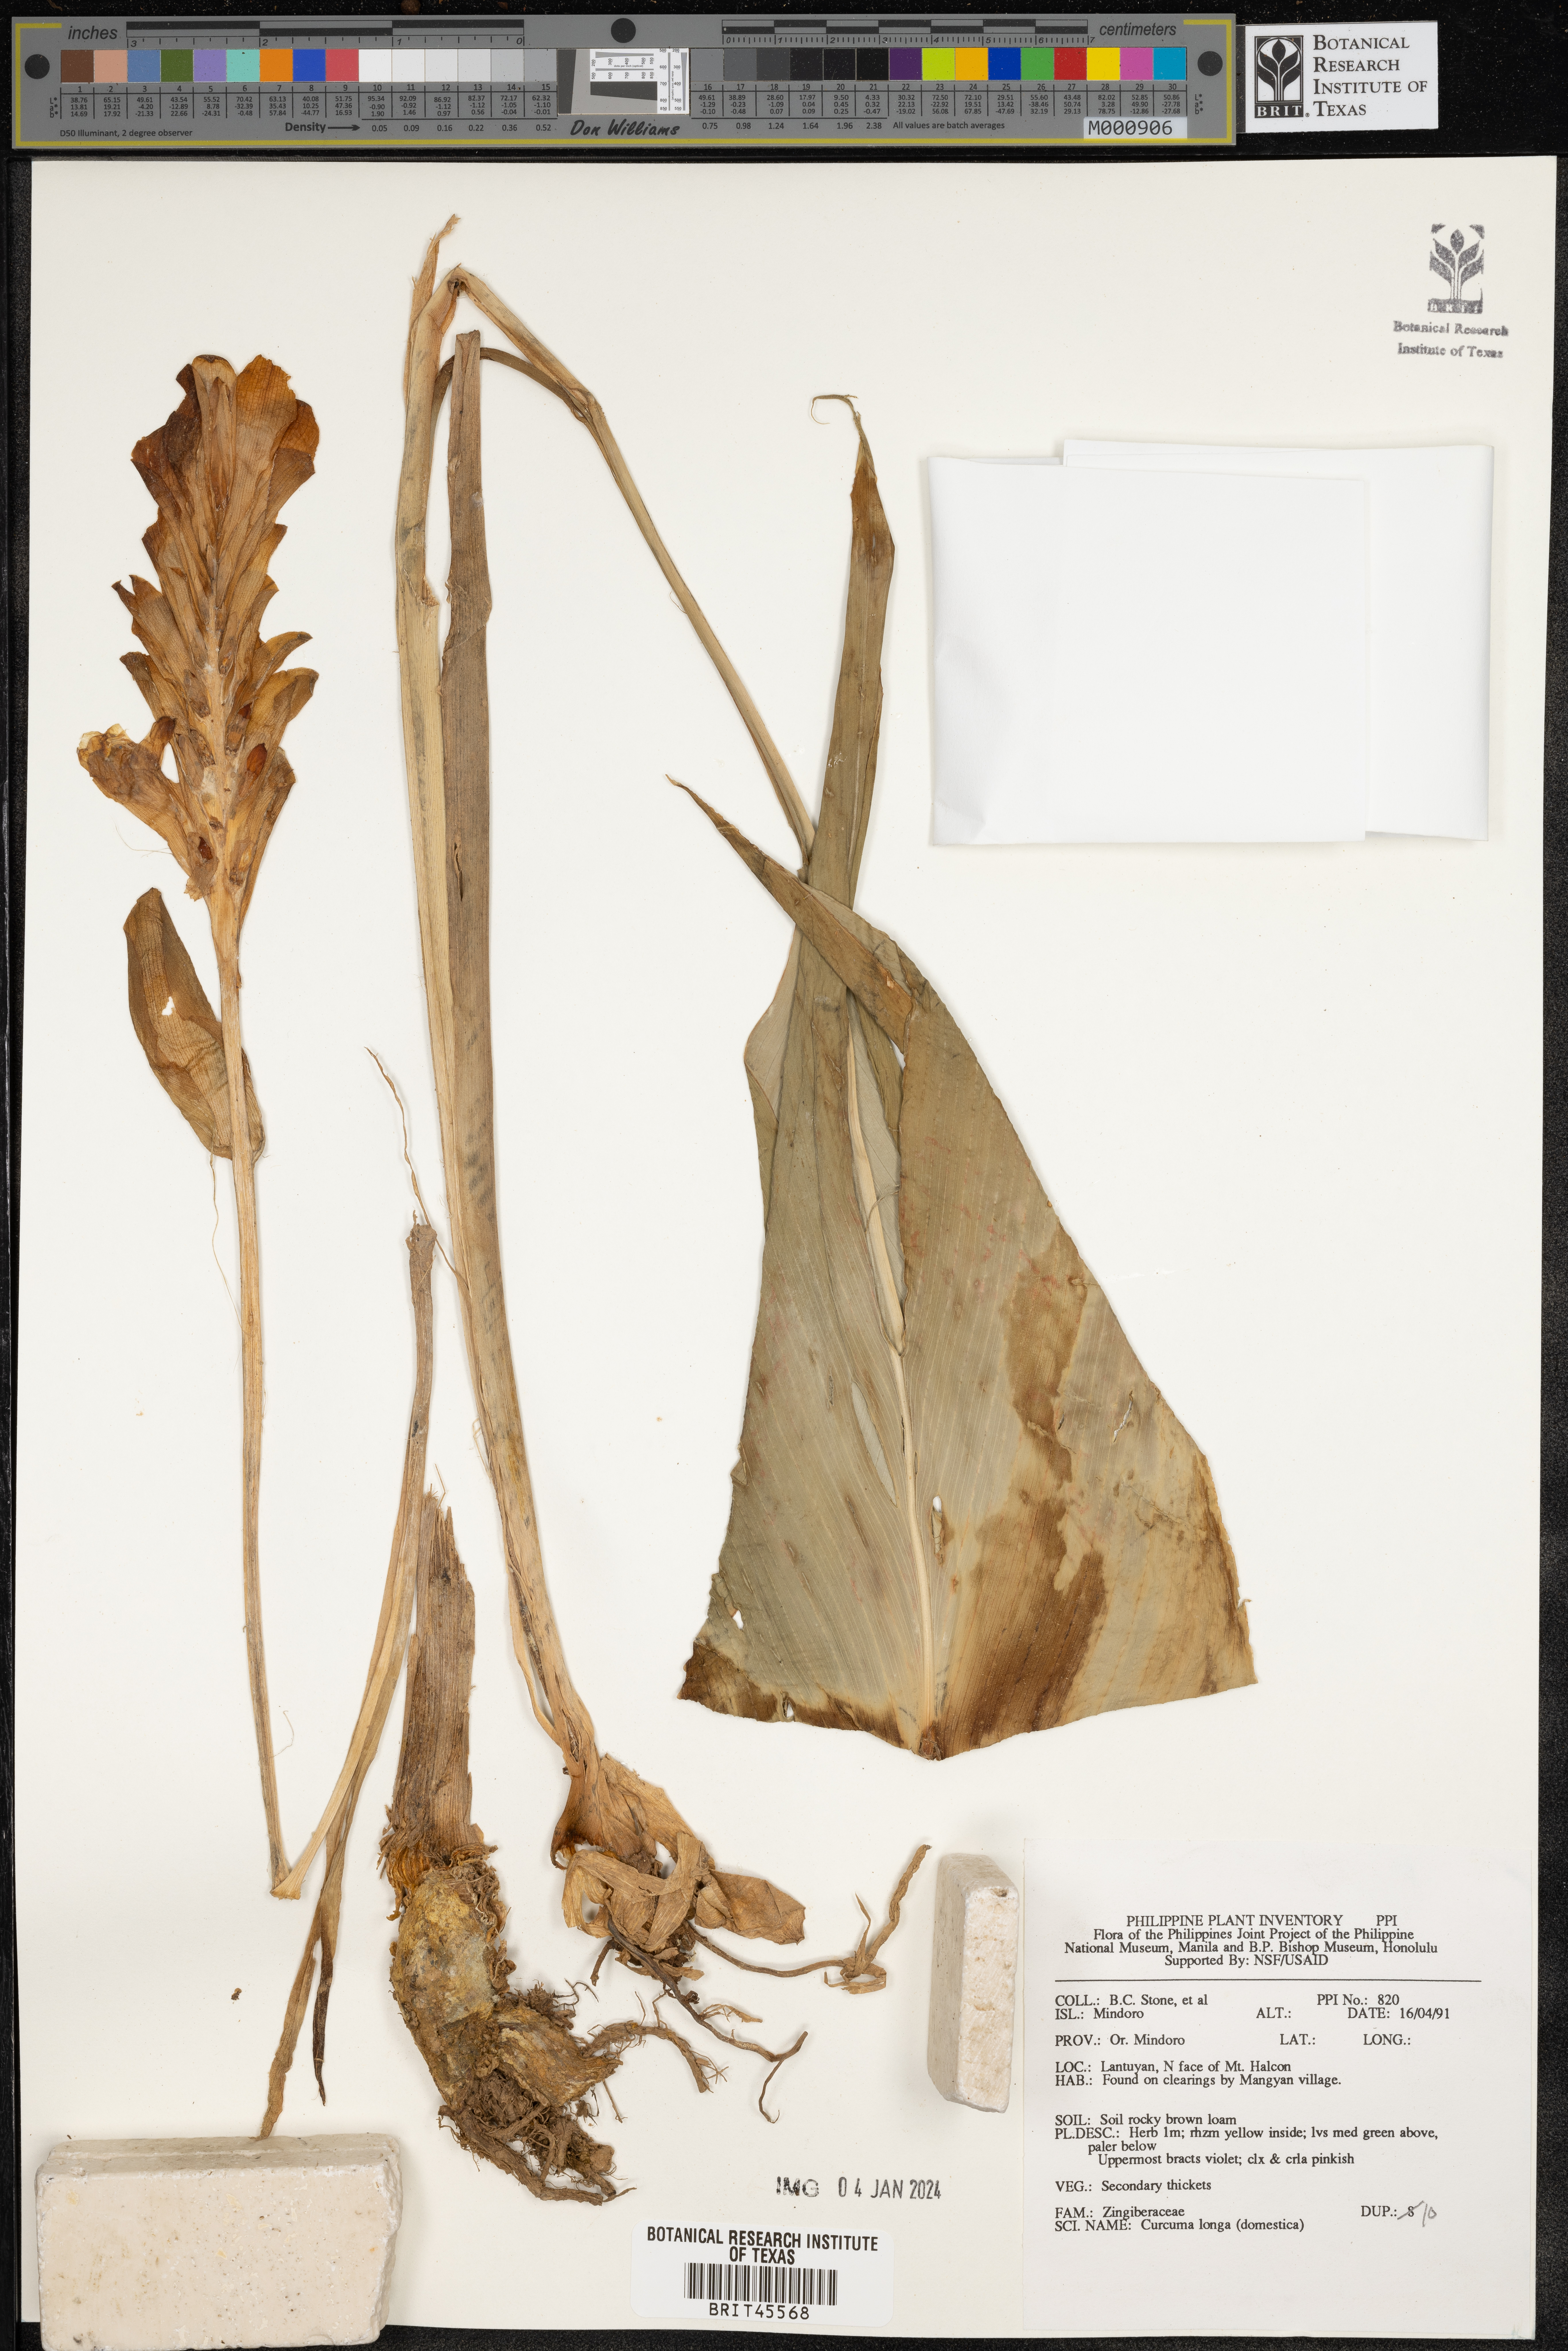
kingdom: Plantae
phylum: Tracheophyta
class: Liliopsida
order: Zingiberales
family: Zingiberaceae
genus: Curcuma
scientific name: Curcuma longa
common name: Turmeric
